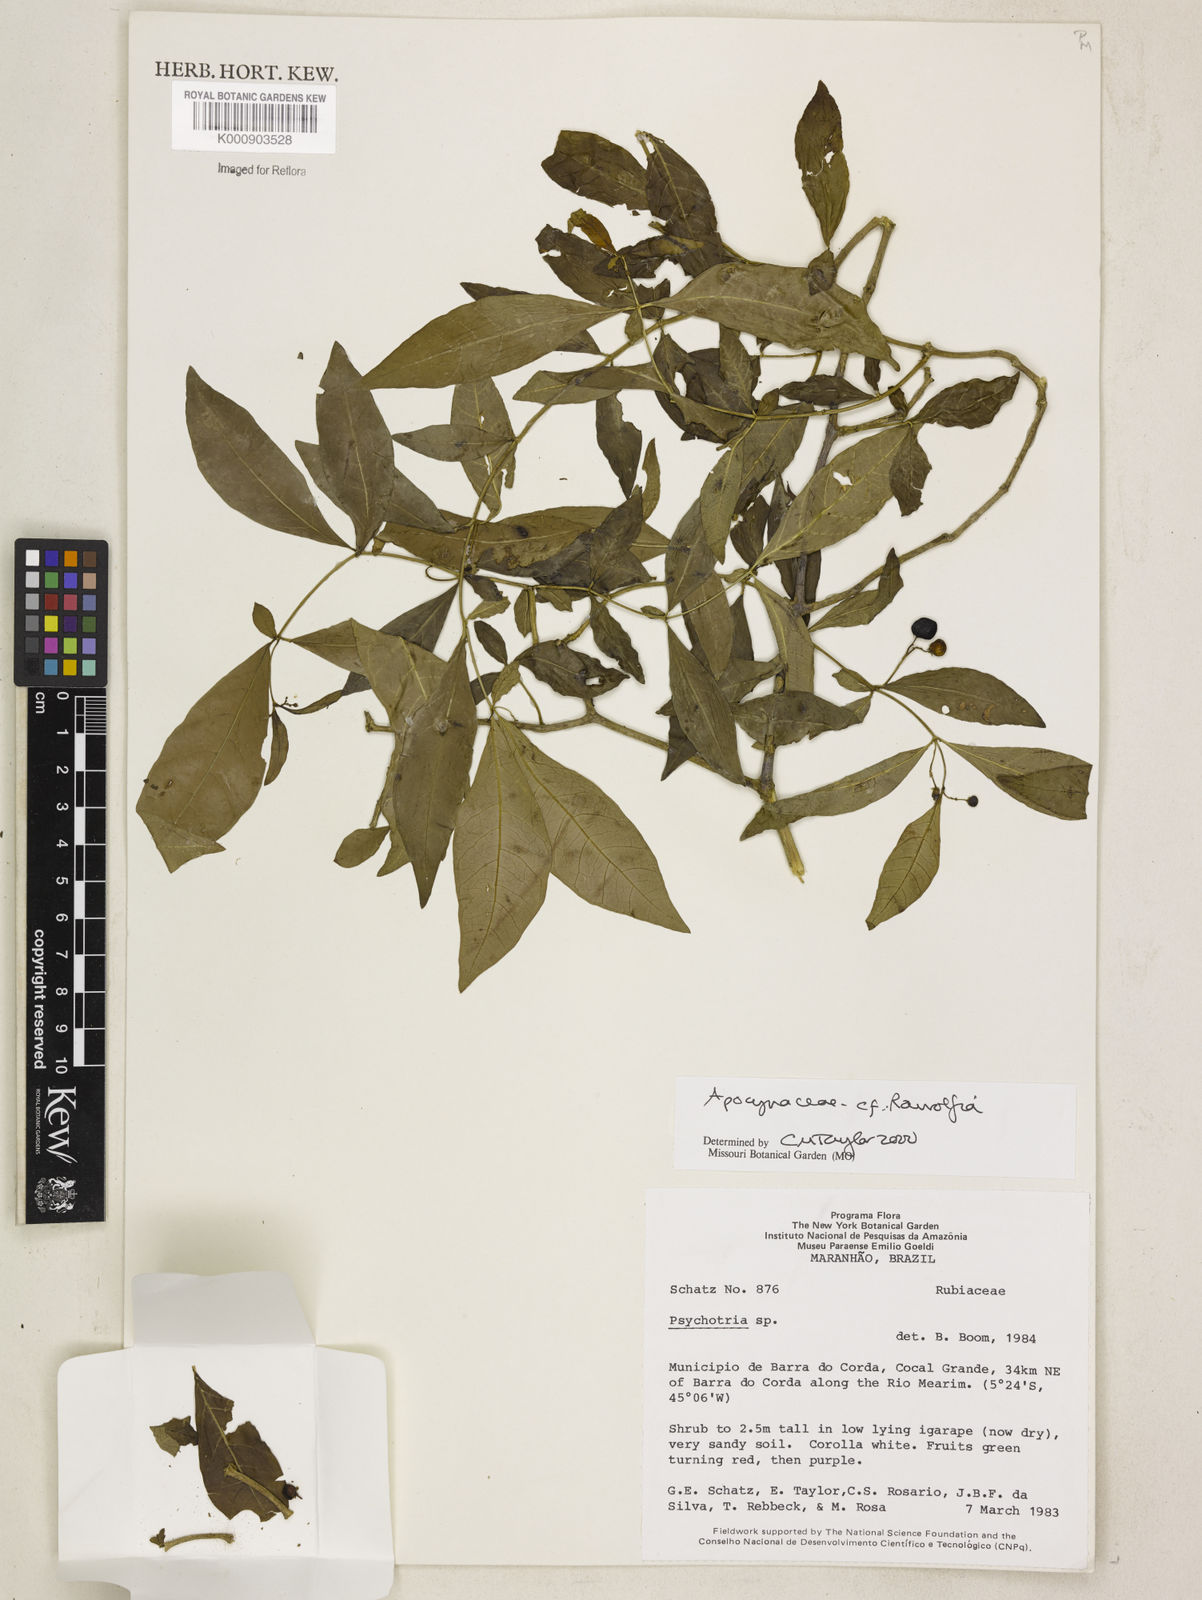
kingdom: Plantae
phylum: Tracheophyta
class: Magnoliopsida
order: Gentianales
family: Apocynaceae
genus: Rauvolfia
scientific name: Rauvolfia
